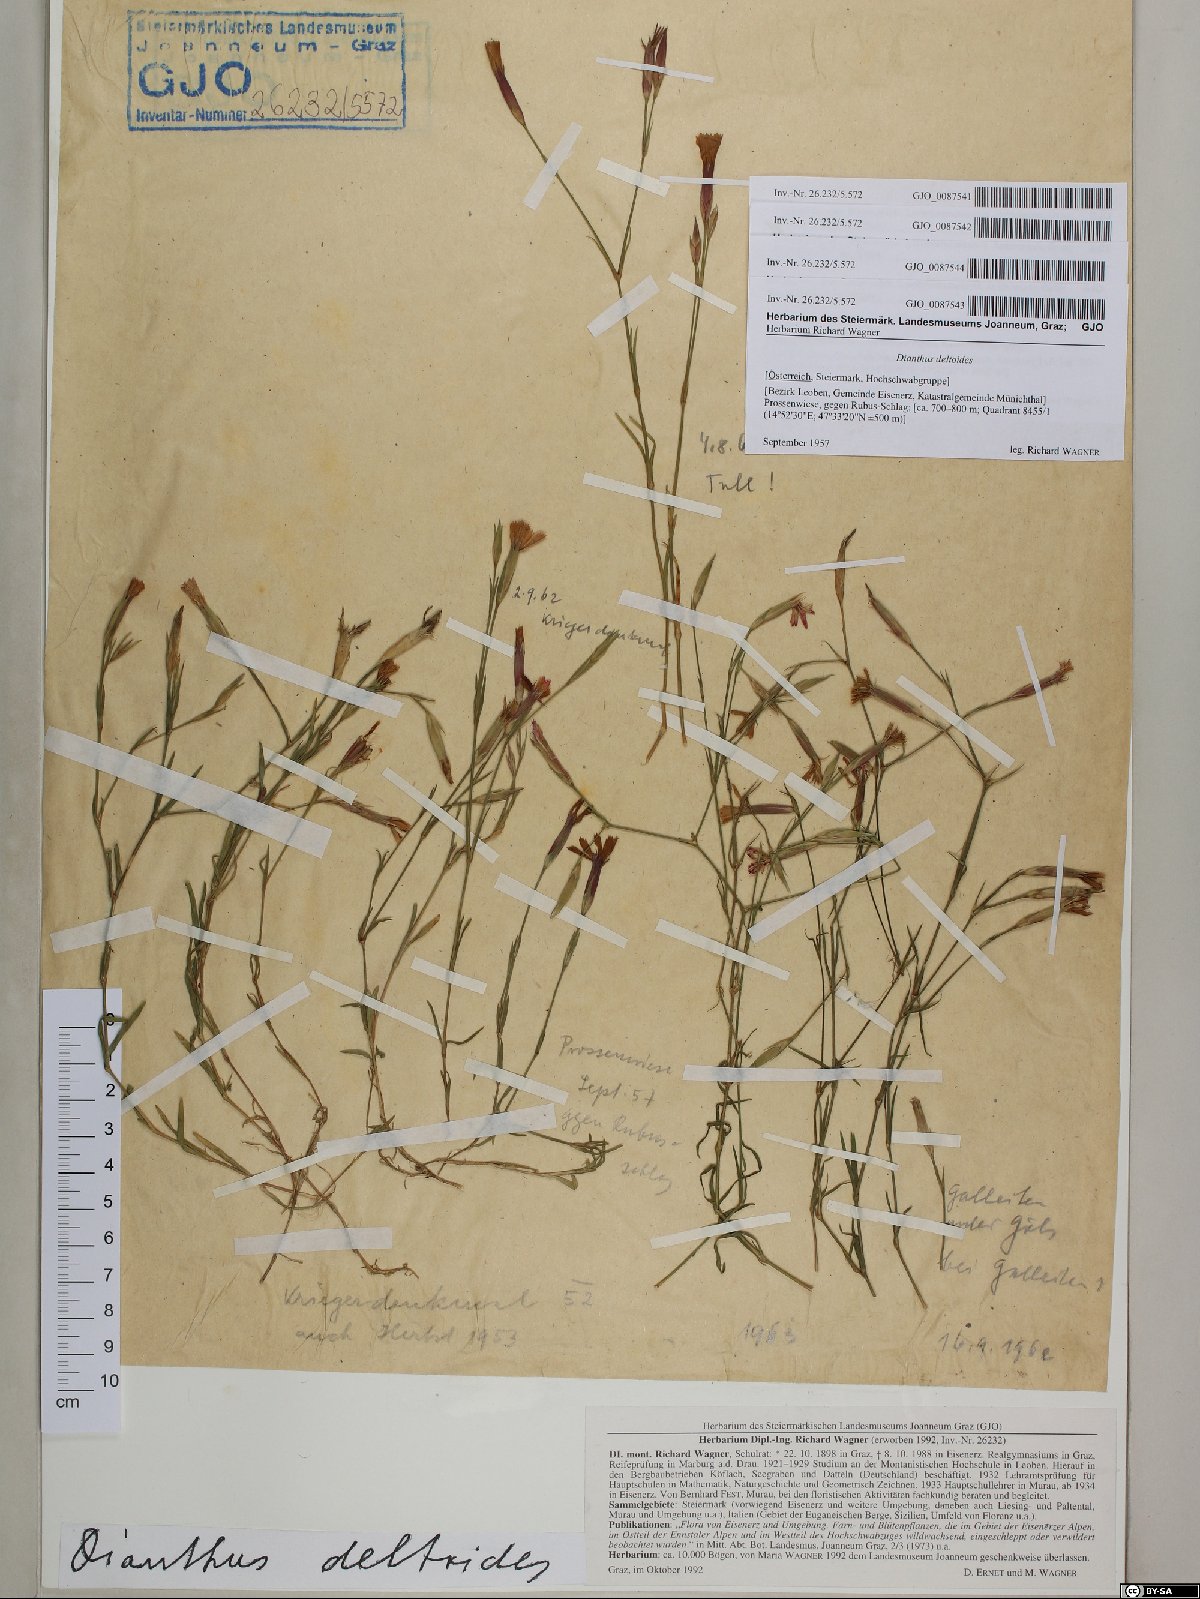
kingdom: Plantae
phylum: Tracheophyta
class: Magnoliopsida
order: Caryophyllales
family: Caryophyllaceae
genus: Dianthus
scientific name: Dianthus deltoides
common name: Maiden pink
